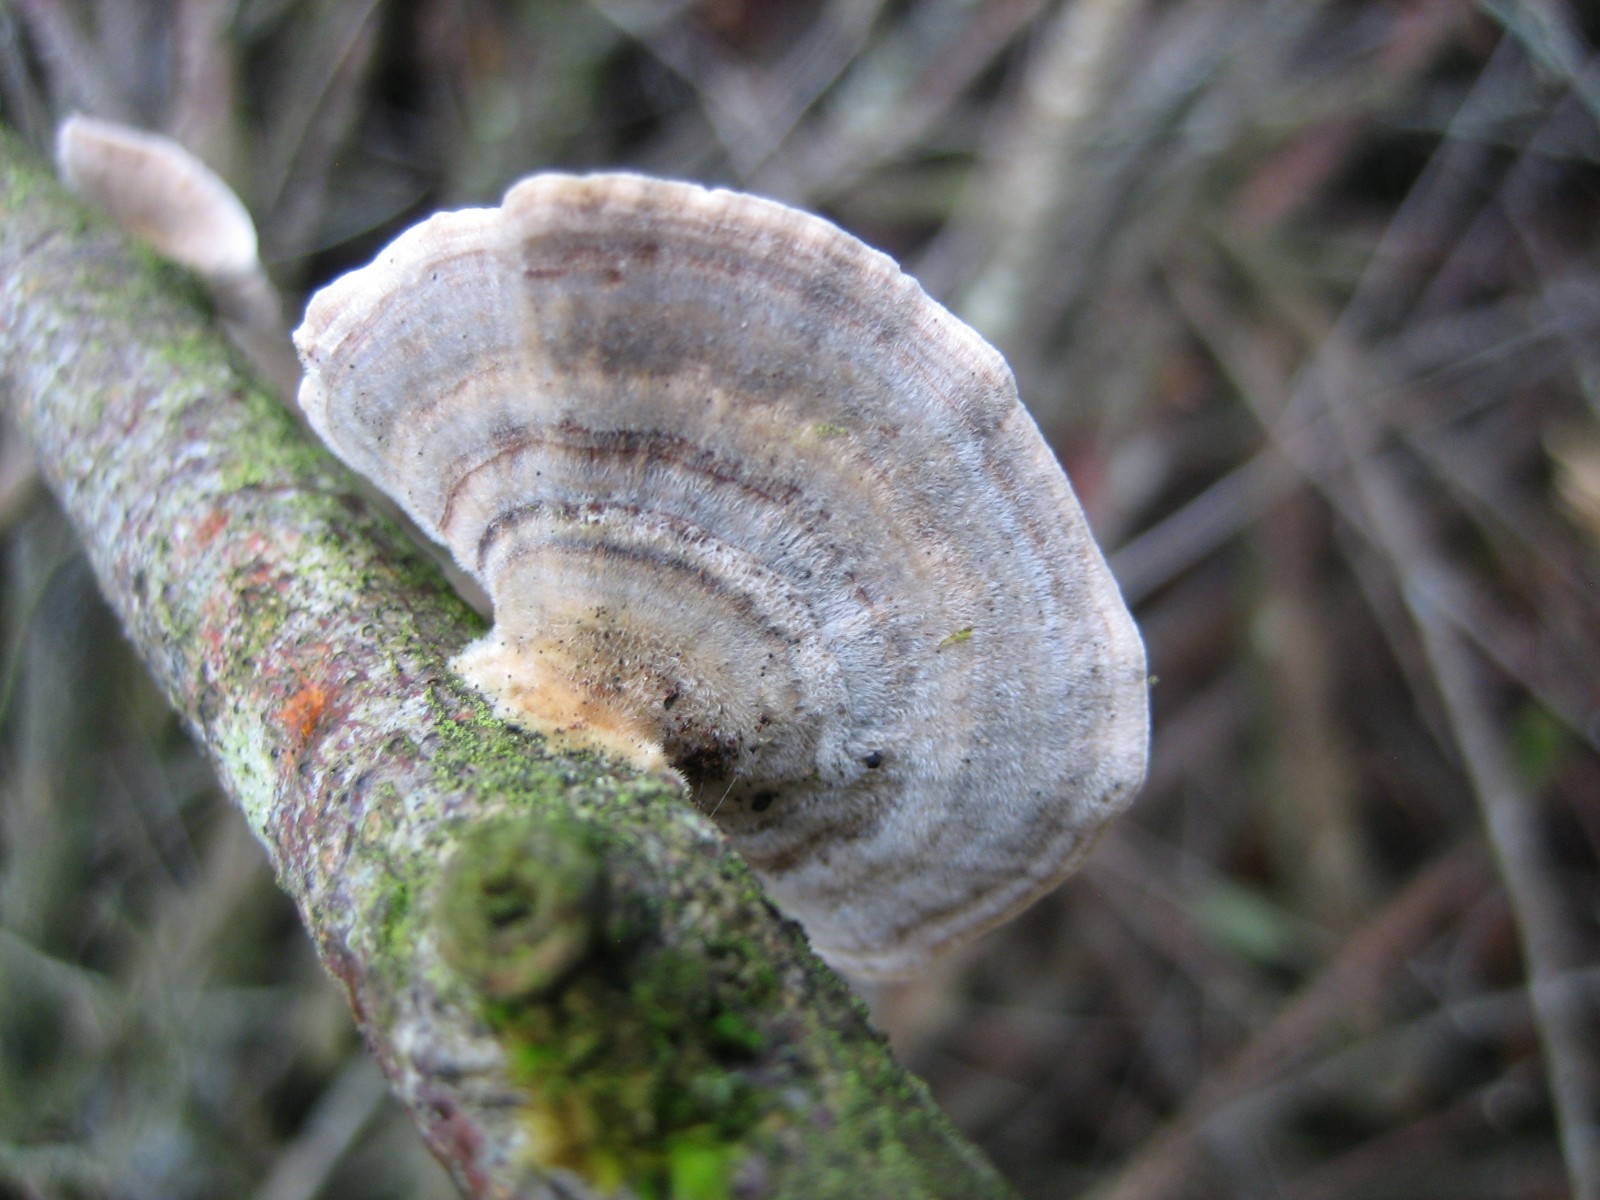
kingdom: Fungi
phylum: Basidiomycota
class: Agaricomycetes
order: Polyporales
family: Polyporaceae
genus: Trametes
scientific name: Trametes versicolor
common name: broget læderporesvamp
